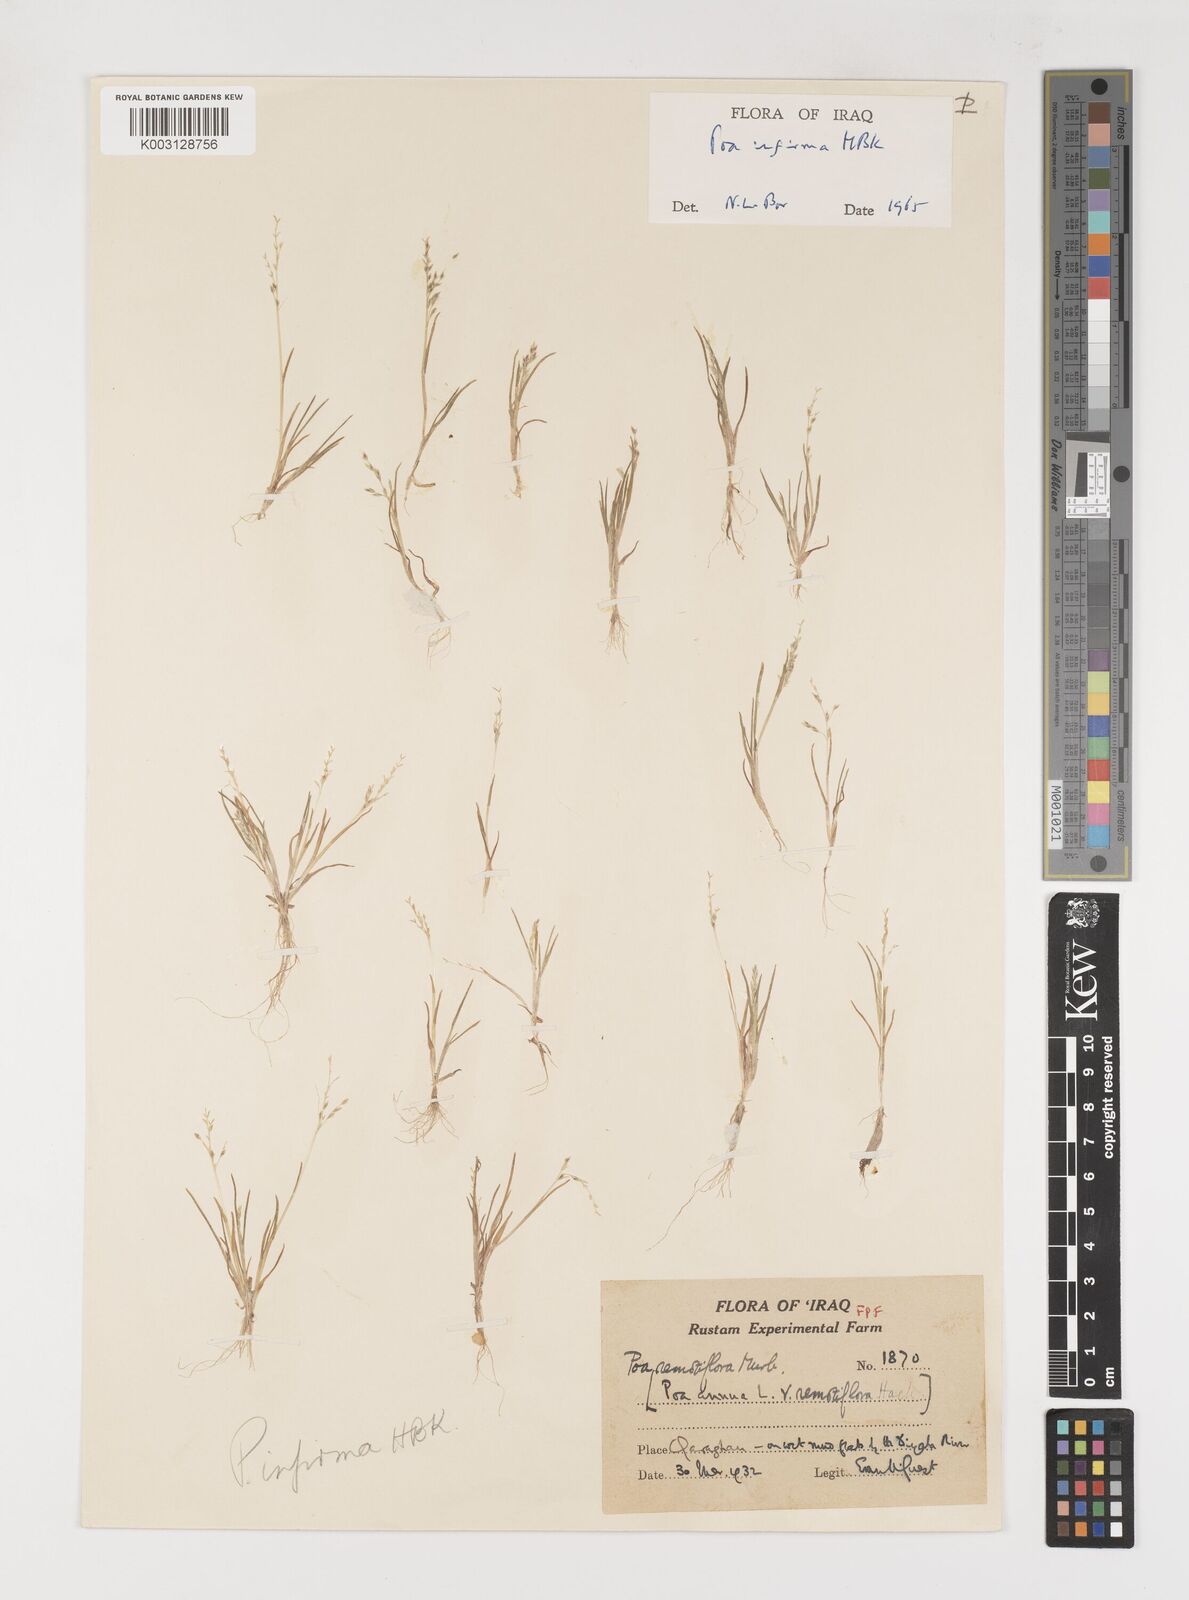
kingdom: Plantae
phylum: Tracheophyta
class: Liliopsida
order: Poales
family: Poaceae
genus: Poa
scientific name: Poa infirma
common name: Weak bluegrass
